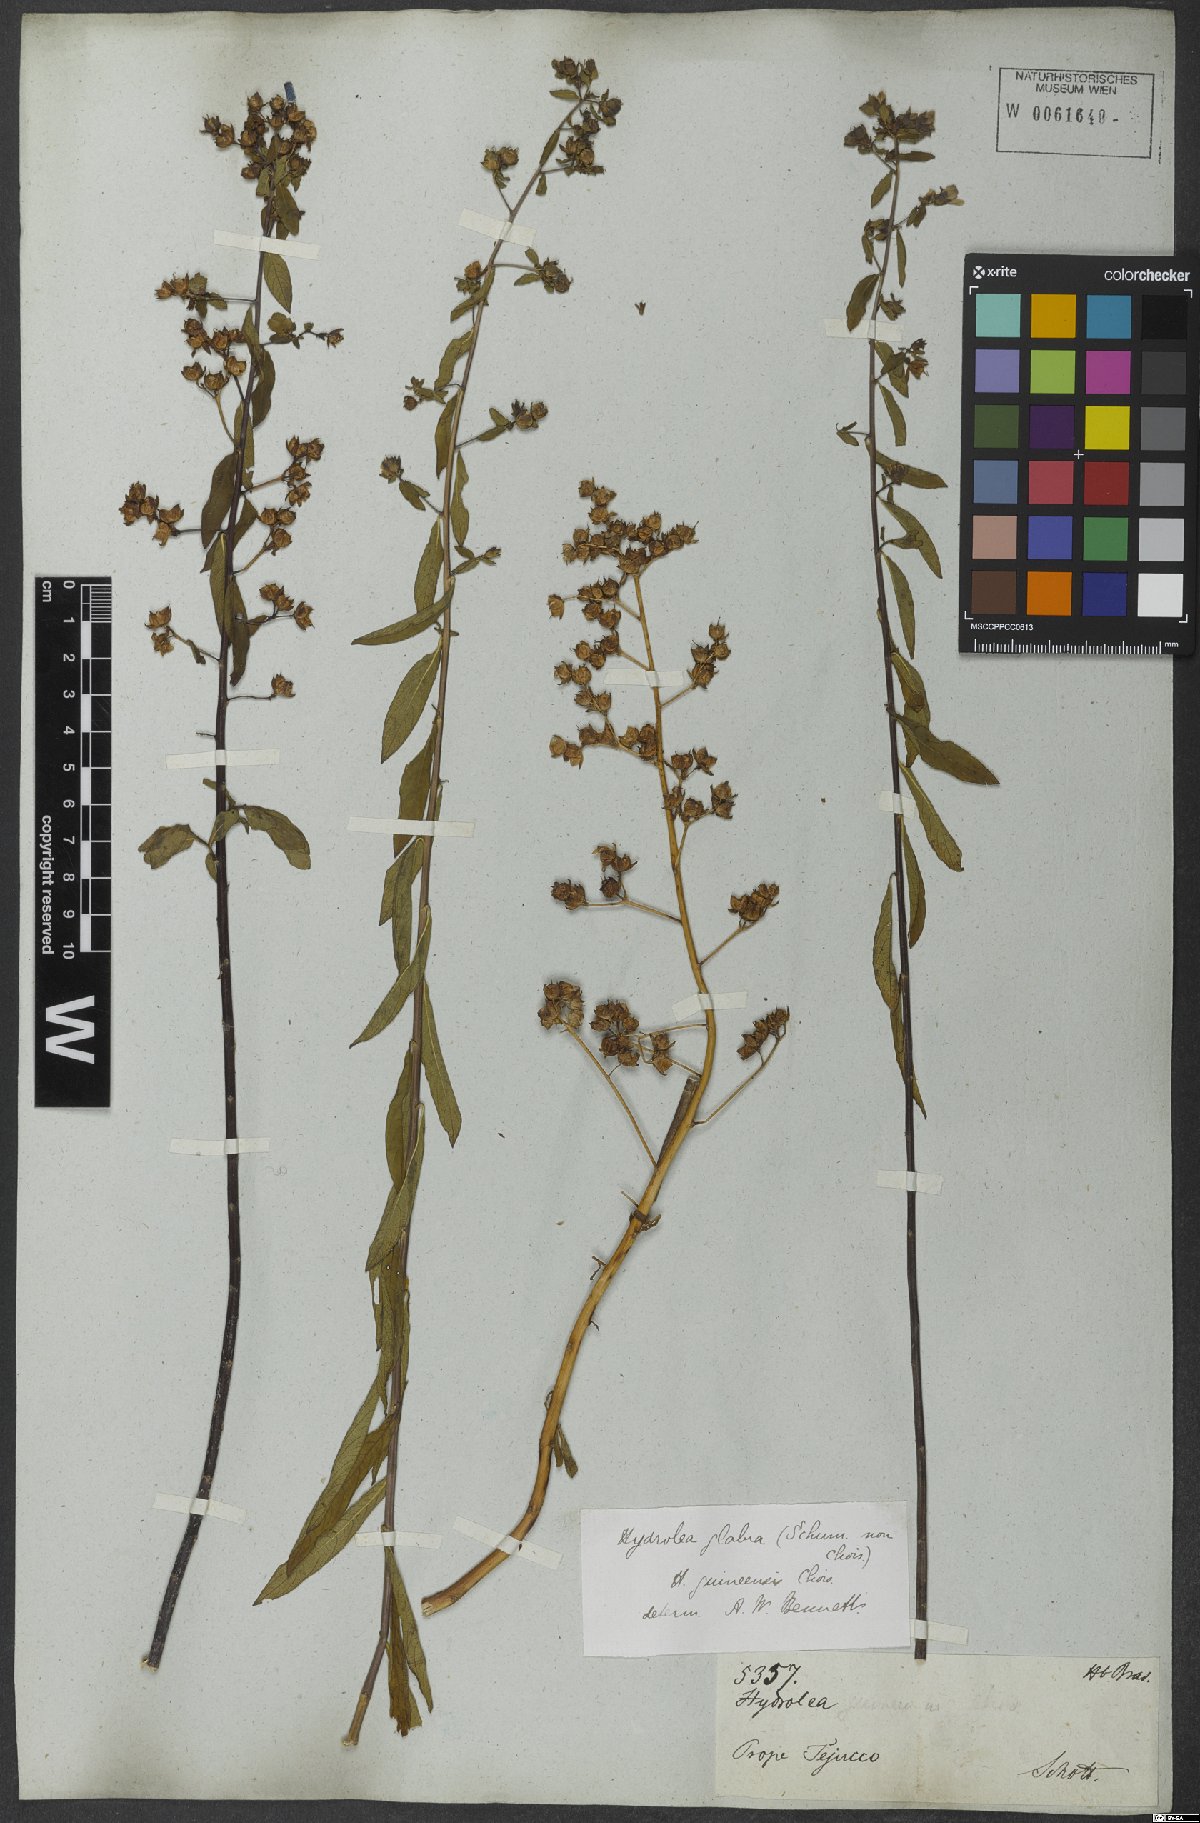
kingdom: Plantae
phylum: Tracheophyta
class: Magnoliopsida
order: Solanales
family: Hydroleaceae
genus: Hydrolea
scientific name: Hydrolea palustris
